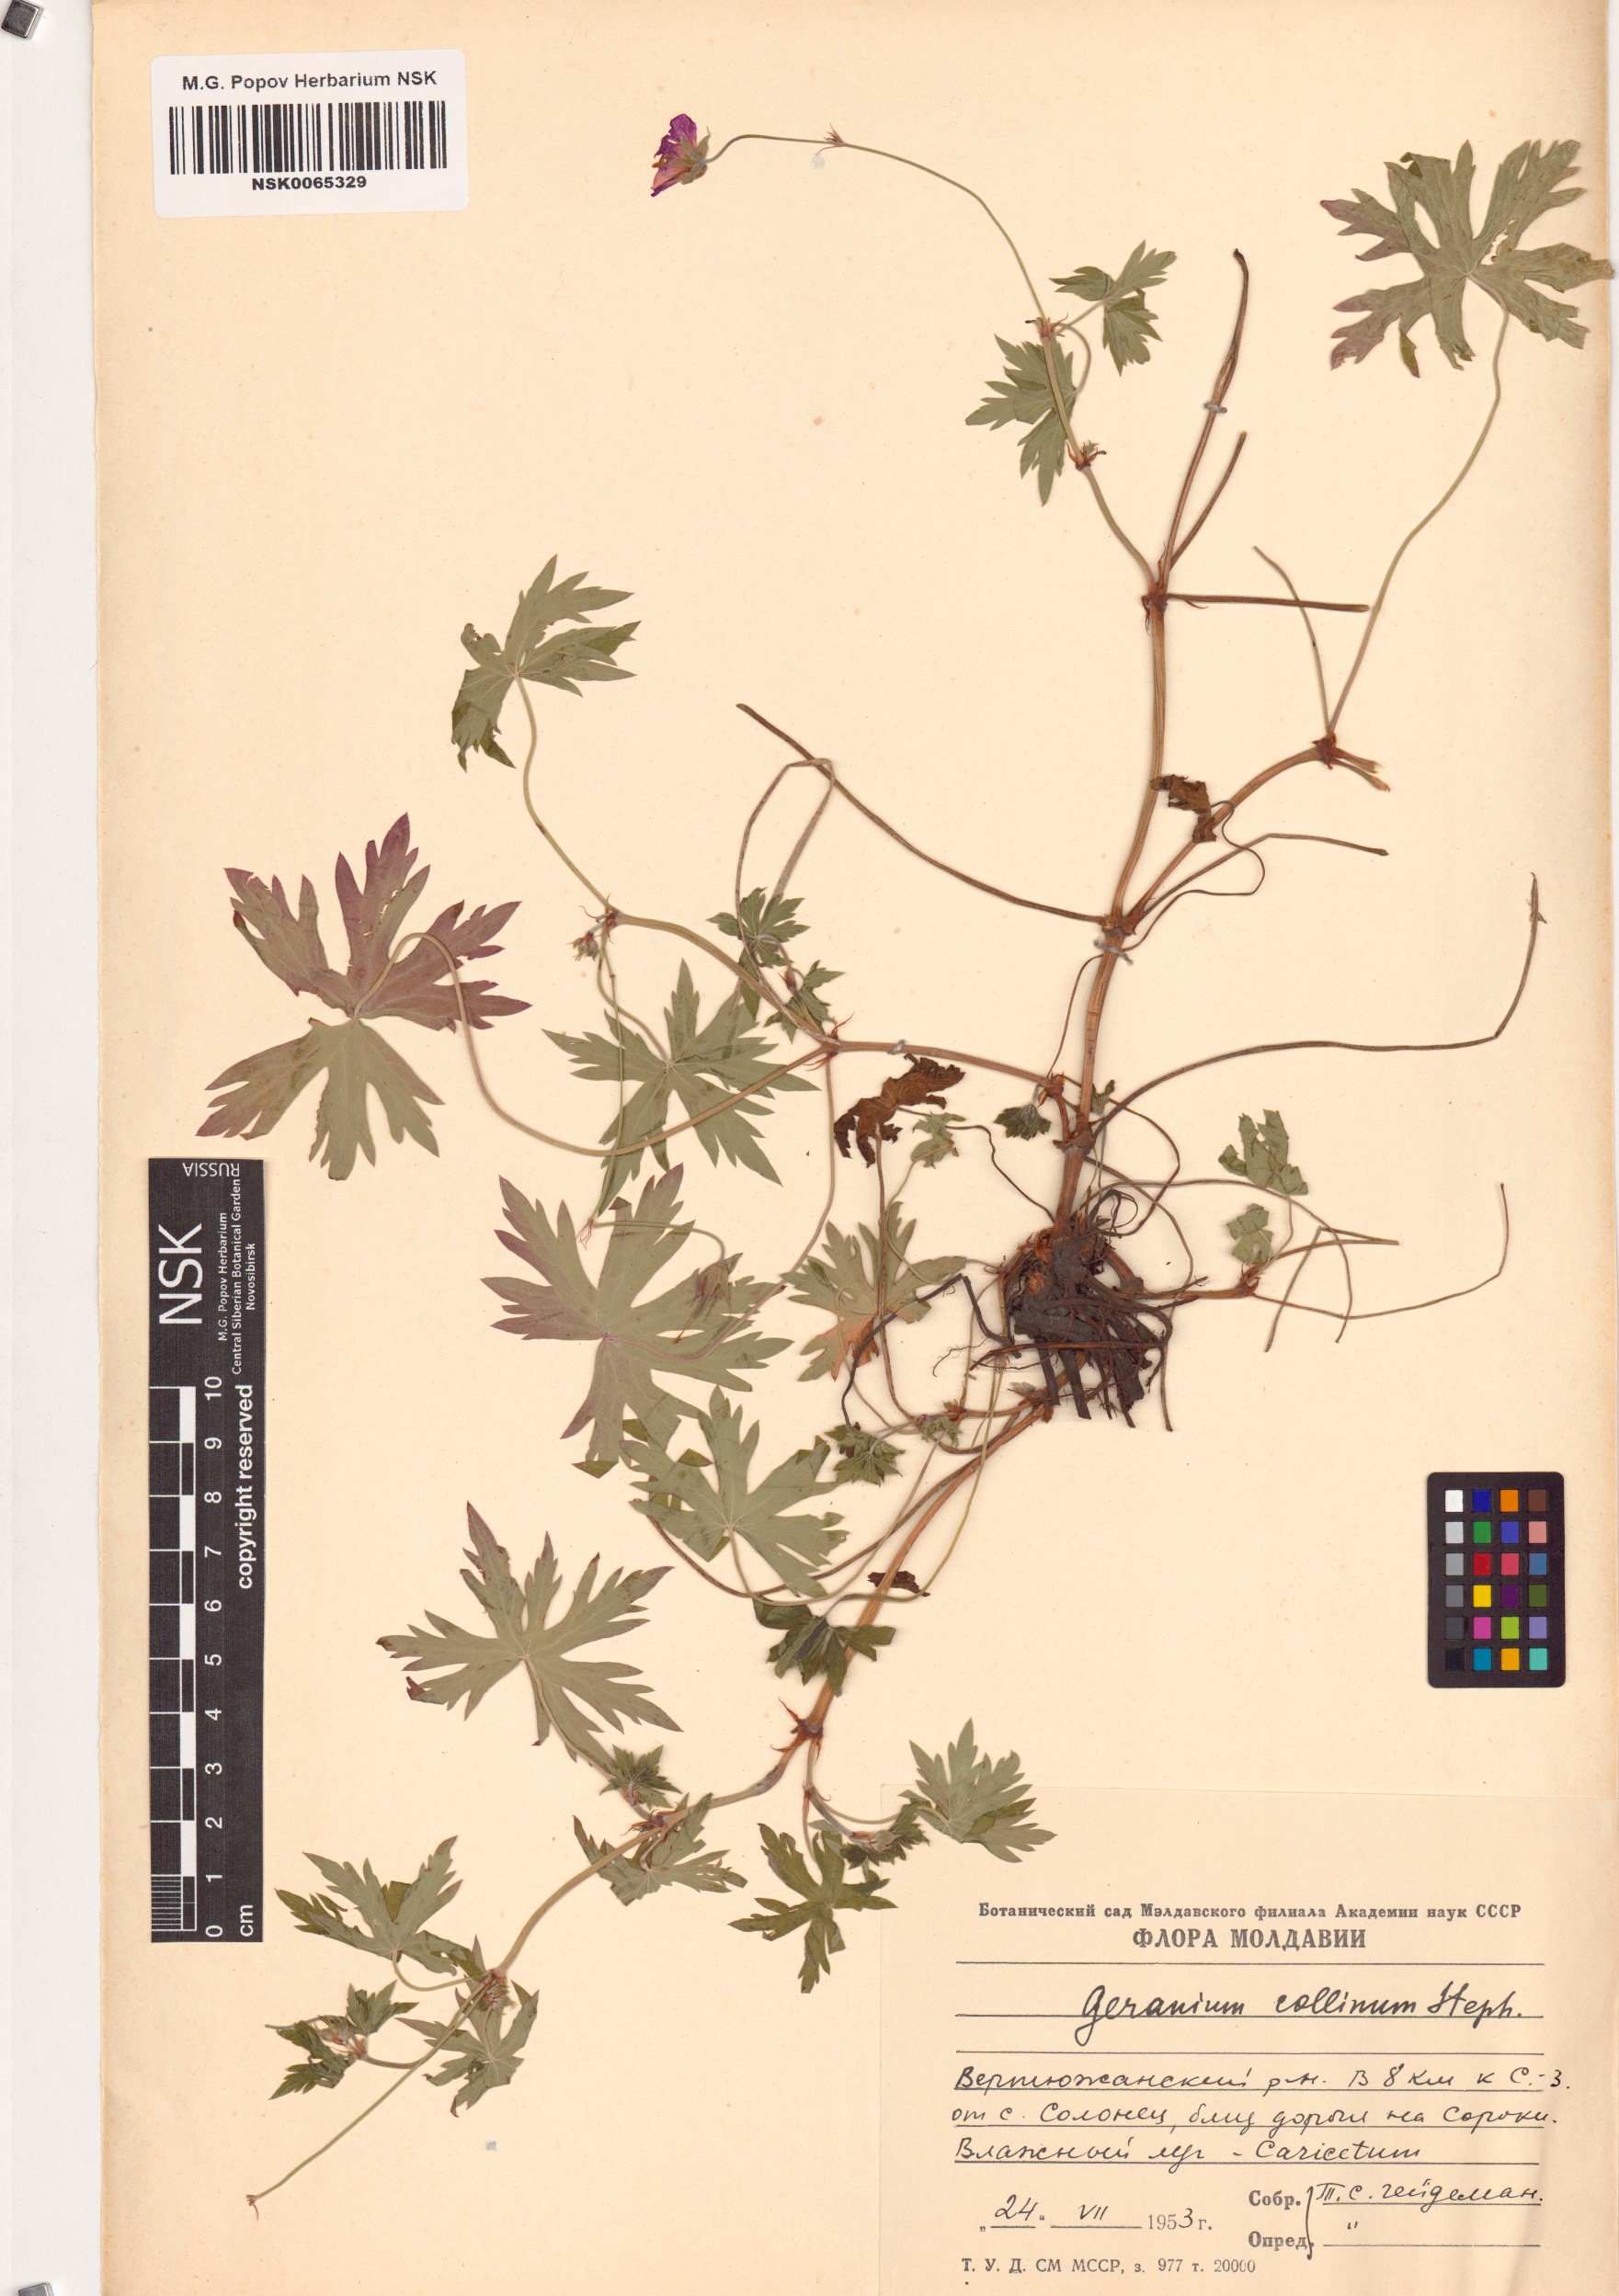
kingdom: Plantae
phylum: Tracheophyta
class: Magnoliopsida
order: Geraniales
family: Geraniaceae
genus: Geranium
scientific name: Geranium collinum
